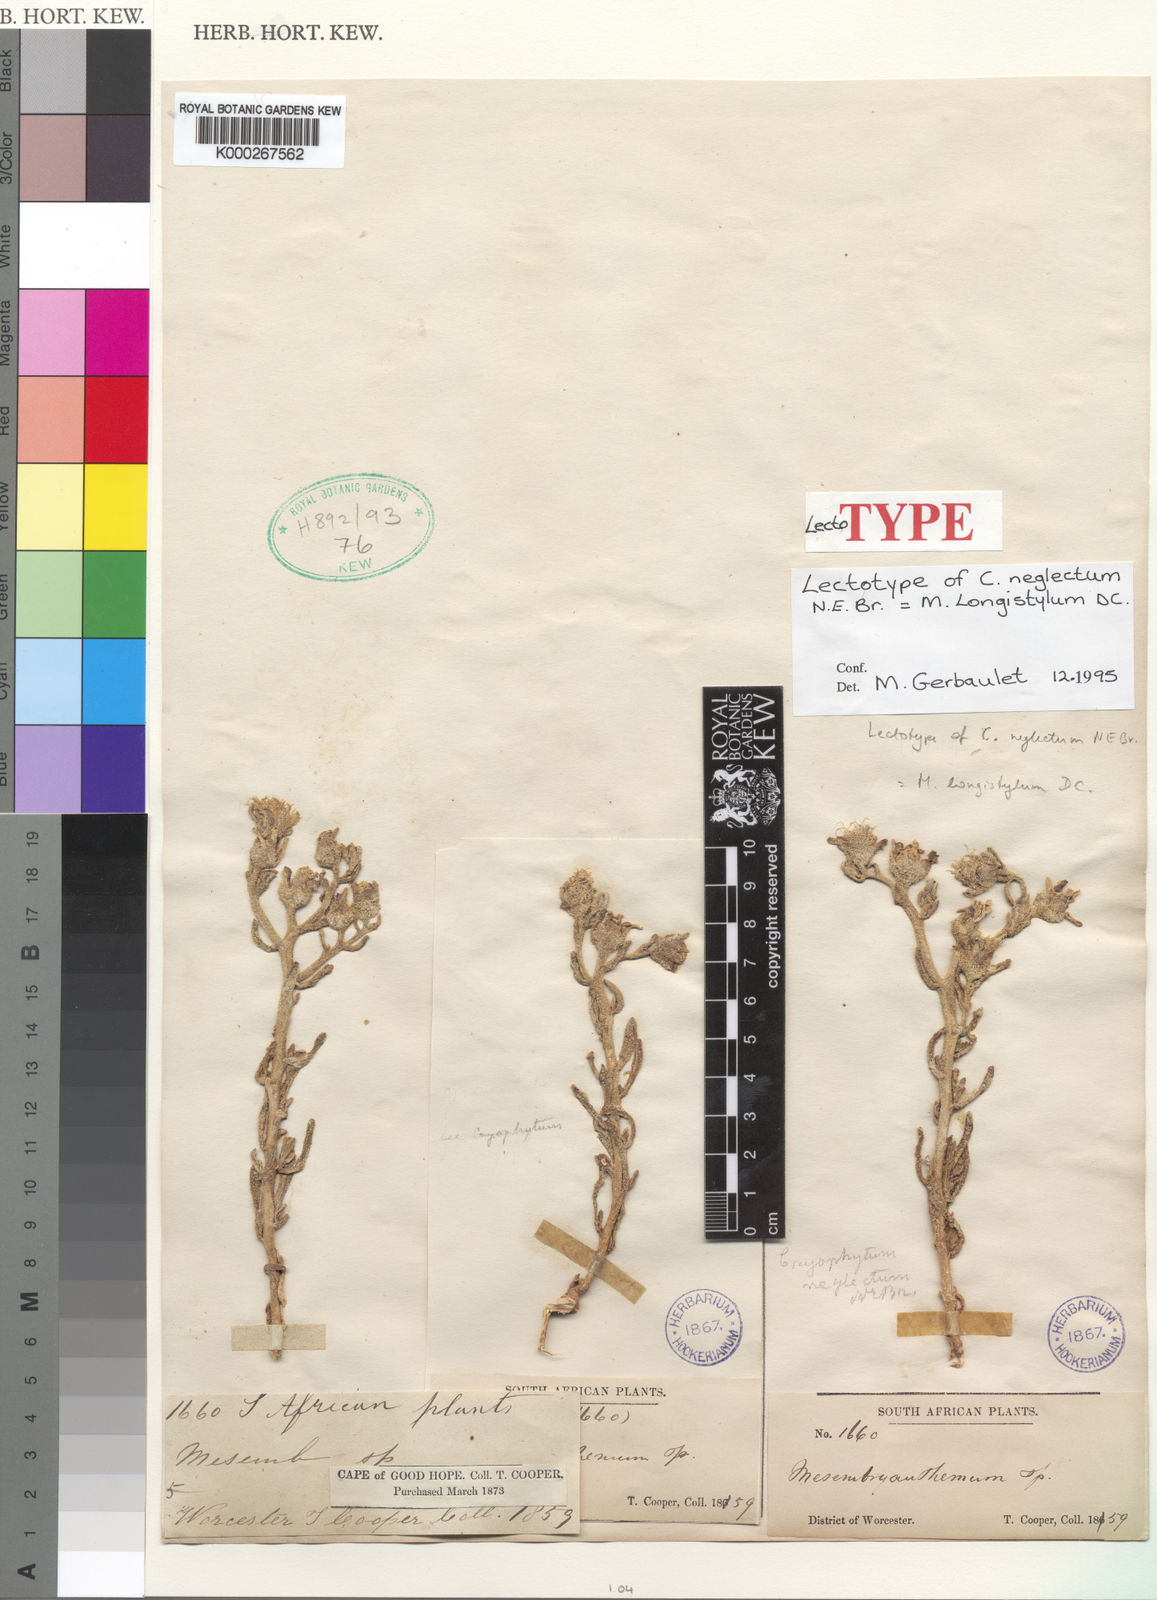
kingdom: Plantae
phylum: Tracheophyta
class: Magnoliopsida
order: Caryophyllales
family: Aizoaceae
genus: Mesembryanthemum
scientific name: Mesembryanthemum longistylum
